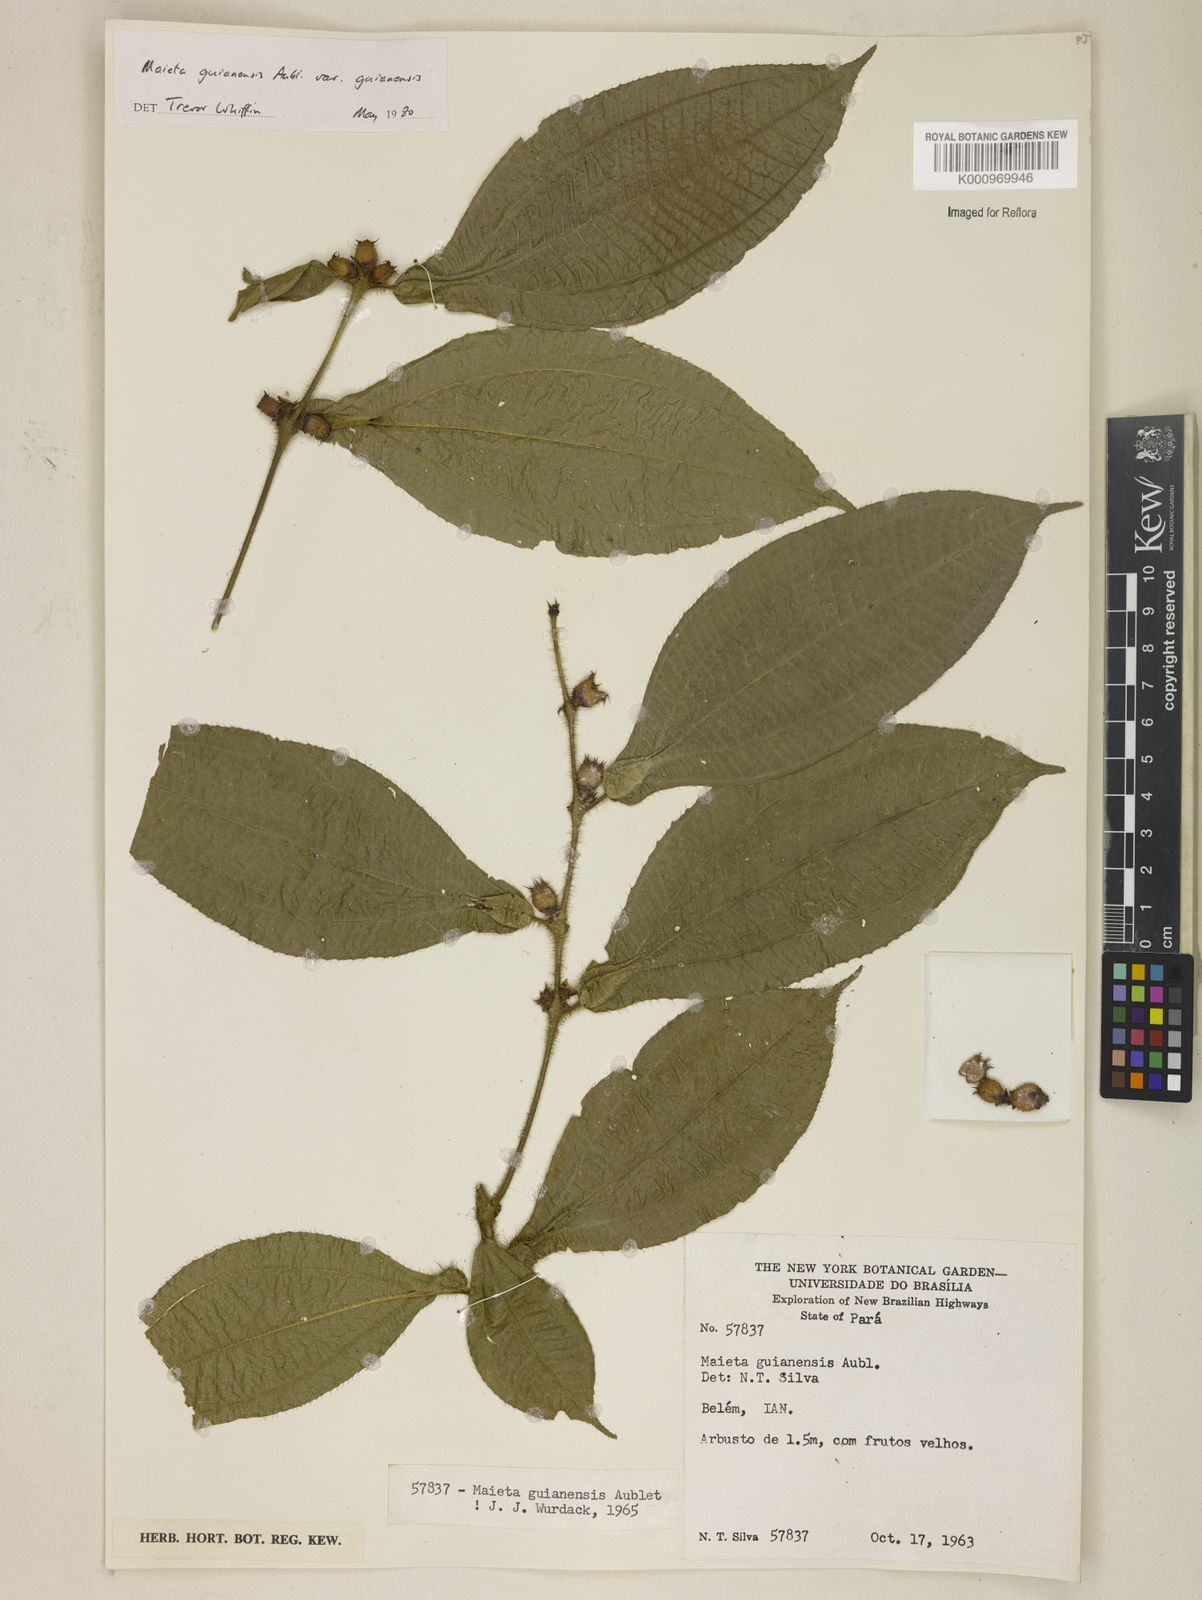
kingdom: Plantae
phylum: Tracheophyta
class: Magnoliopsida
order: Myrtales
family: Melastomataceae
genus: Miconia
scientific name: Miconia mayeta
